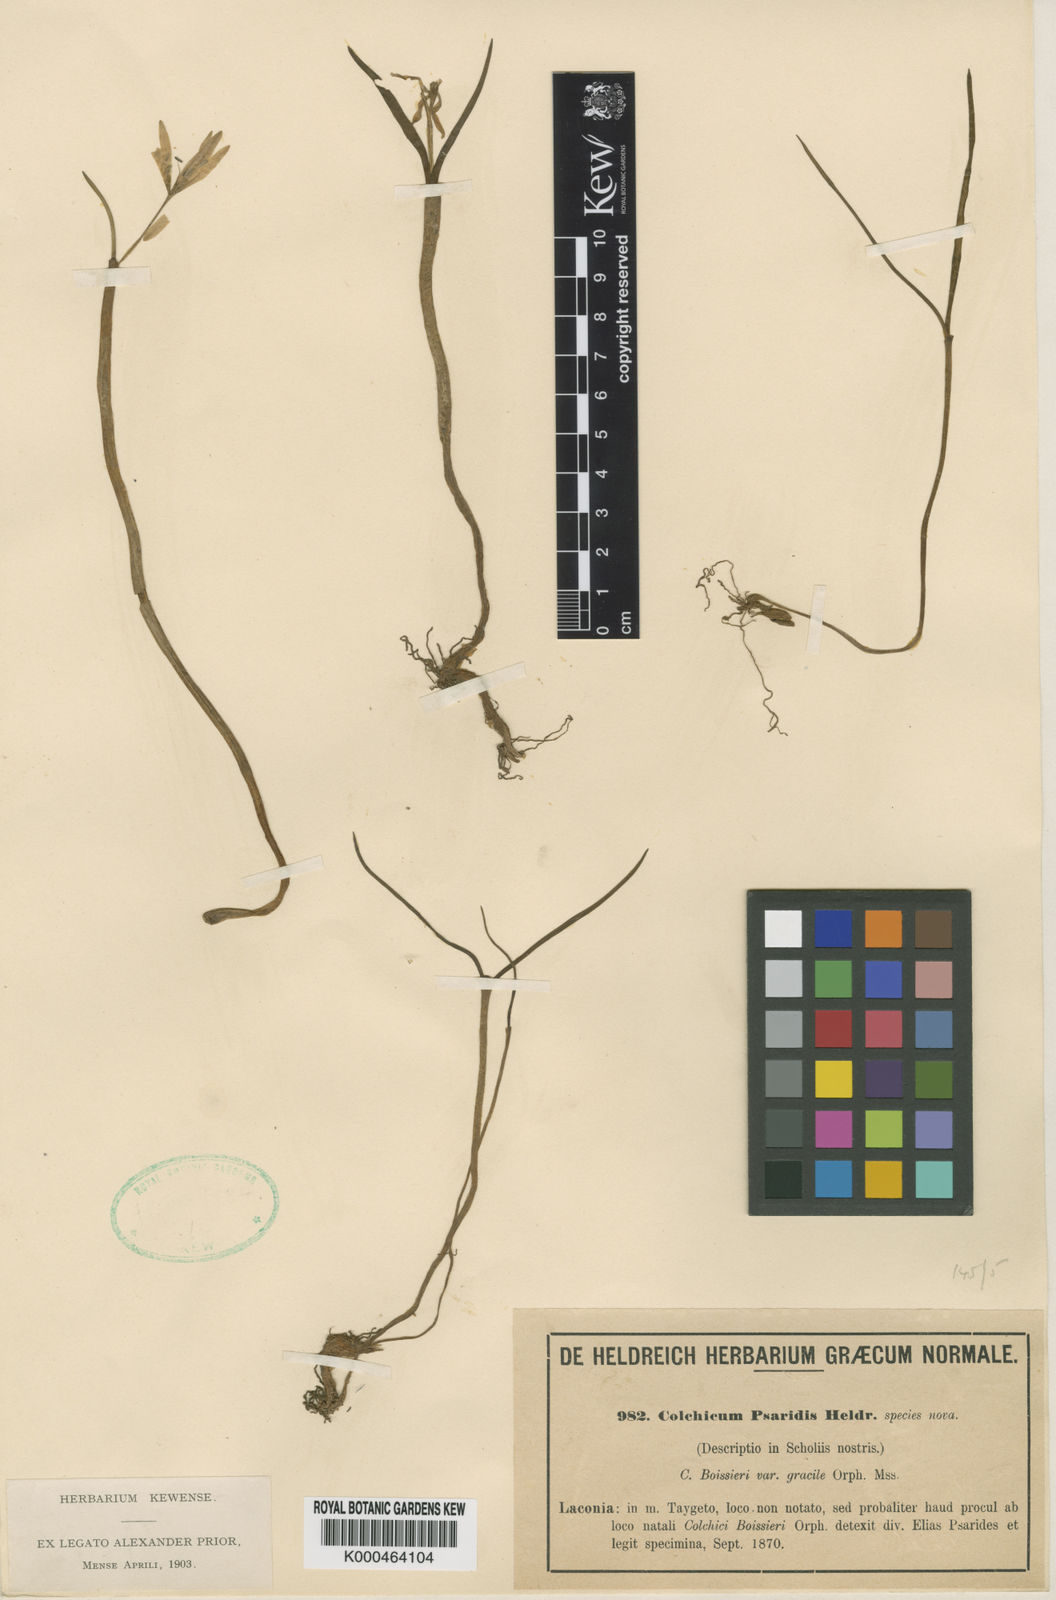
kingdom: Plantae
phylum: Tracheophyta
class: Liliopsida
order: Liliales
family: Colchicaceae
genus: Colchicum
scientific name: Colchicum zahnii
